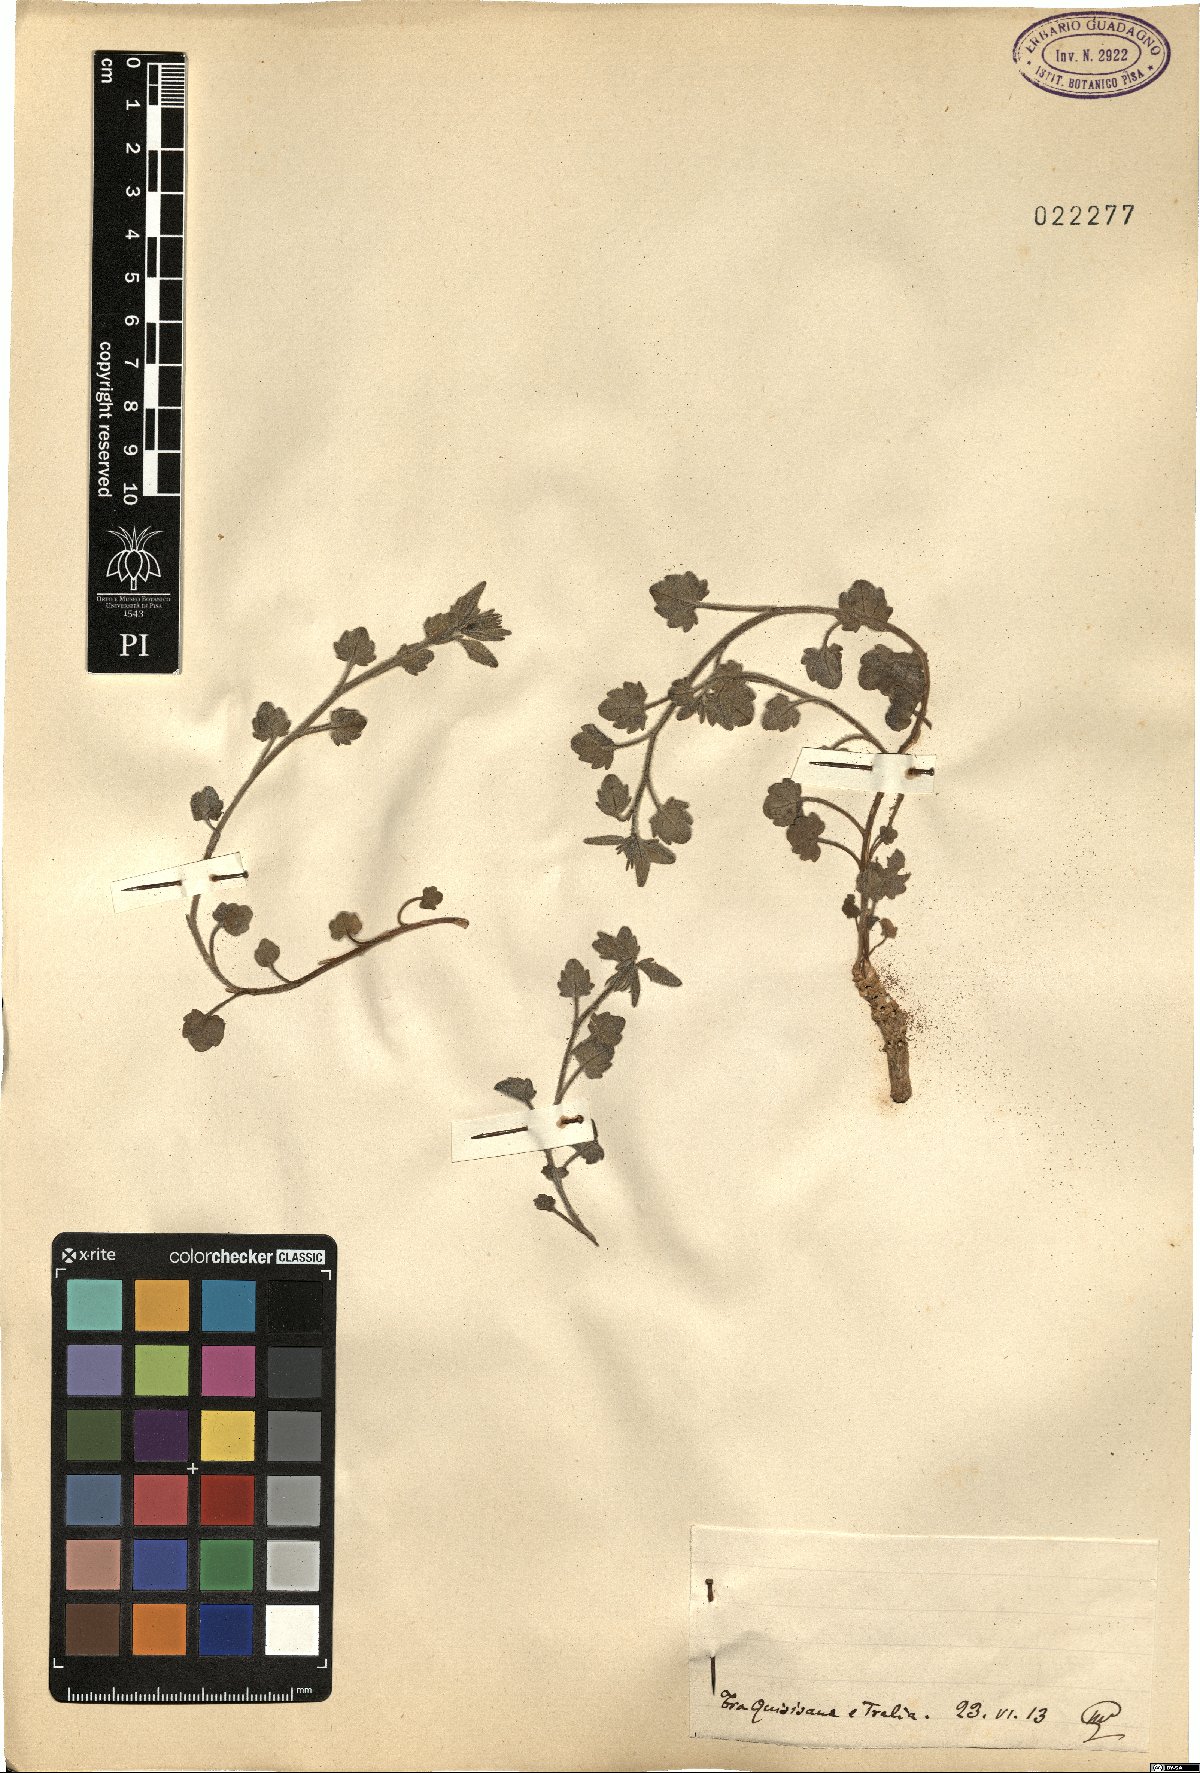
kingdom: Plantae
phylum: Tracheophyta
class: Magnoliopsida
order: Asterales
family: Campanulaceae
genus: Campanula
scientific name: Campanula
